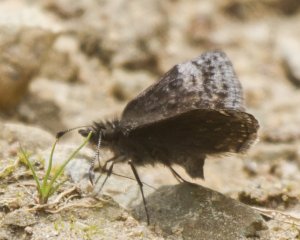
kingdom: Animalia
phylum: Arthropoda
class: Insecta
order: Lepidoptera
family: Hesperiidae
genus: Erynnis
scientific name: Erynnis icelus
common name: Dreamy Duskywing
